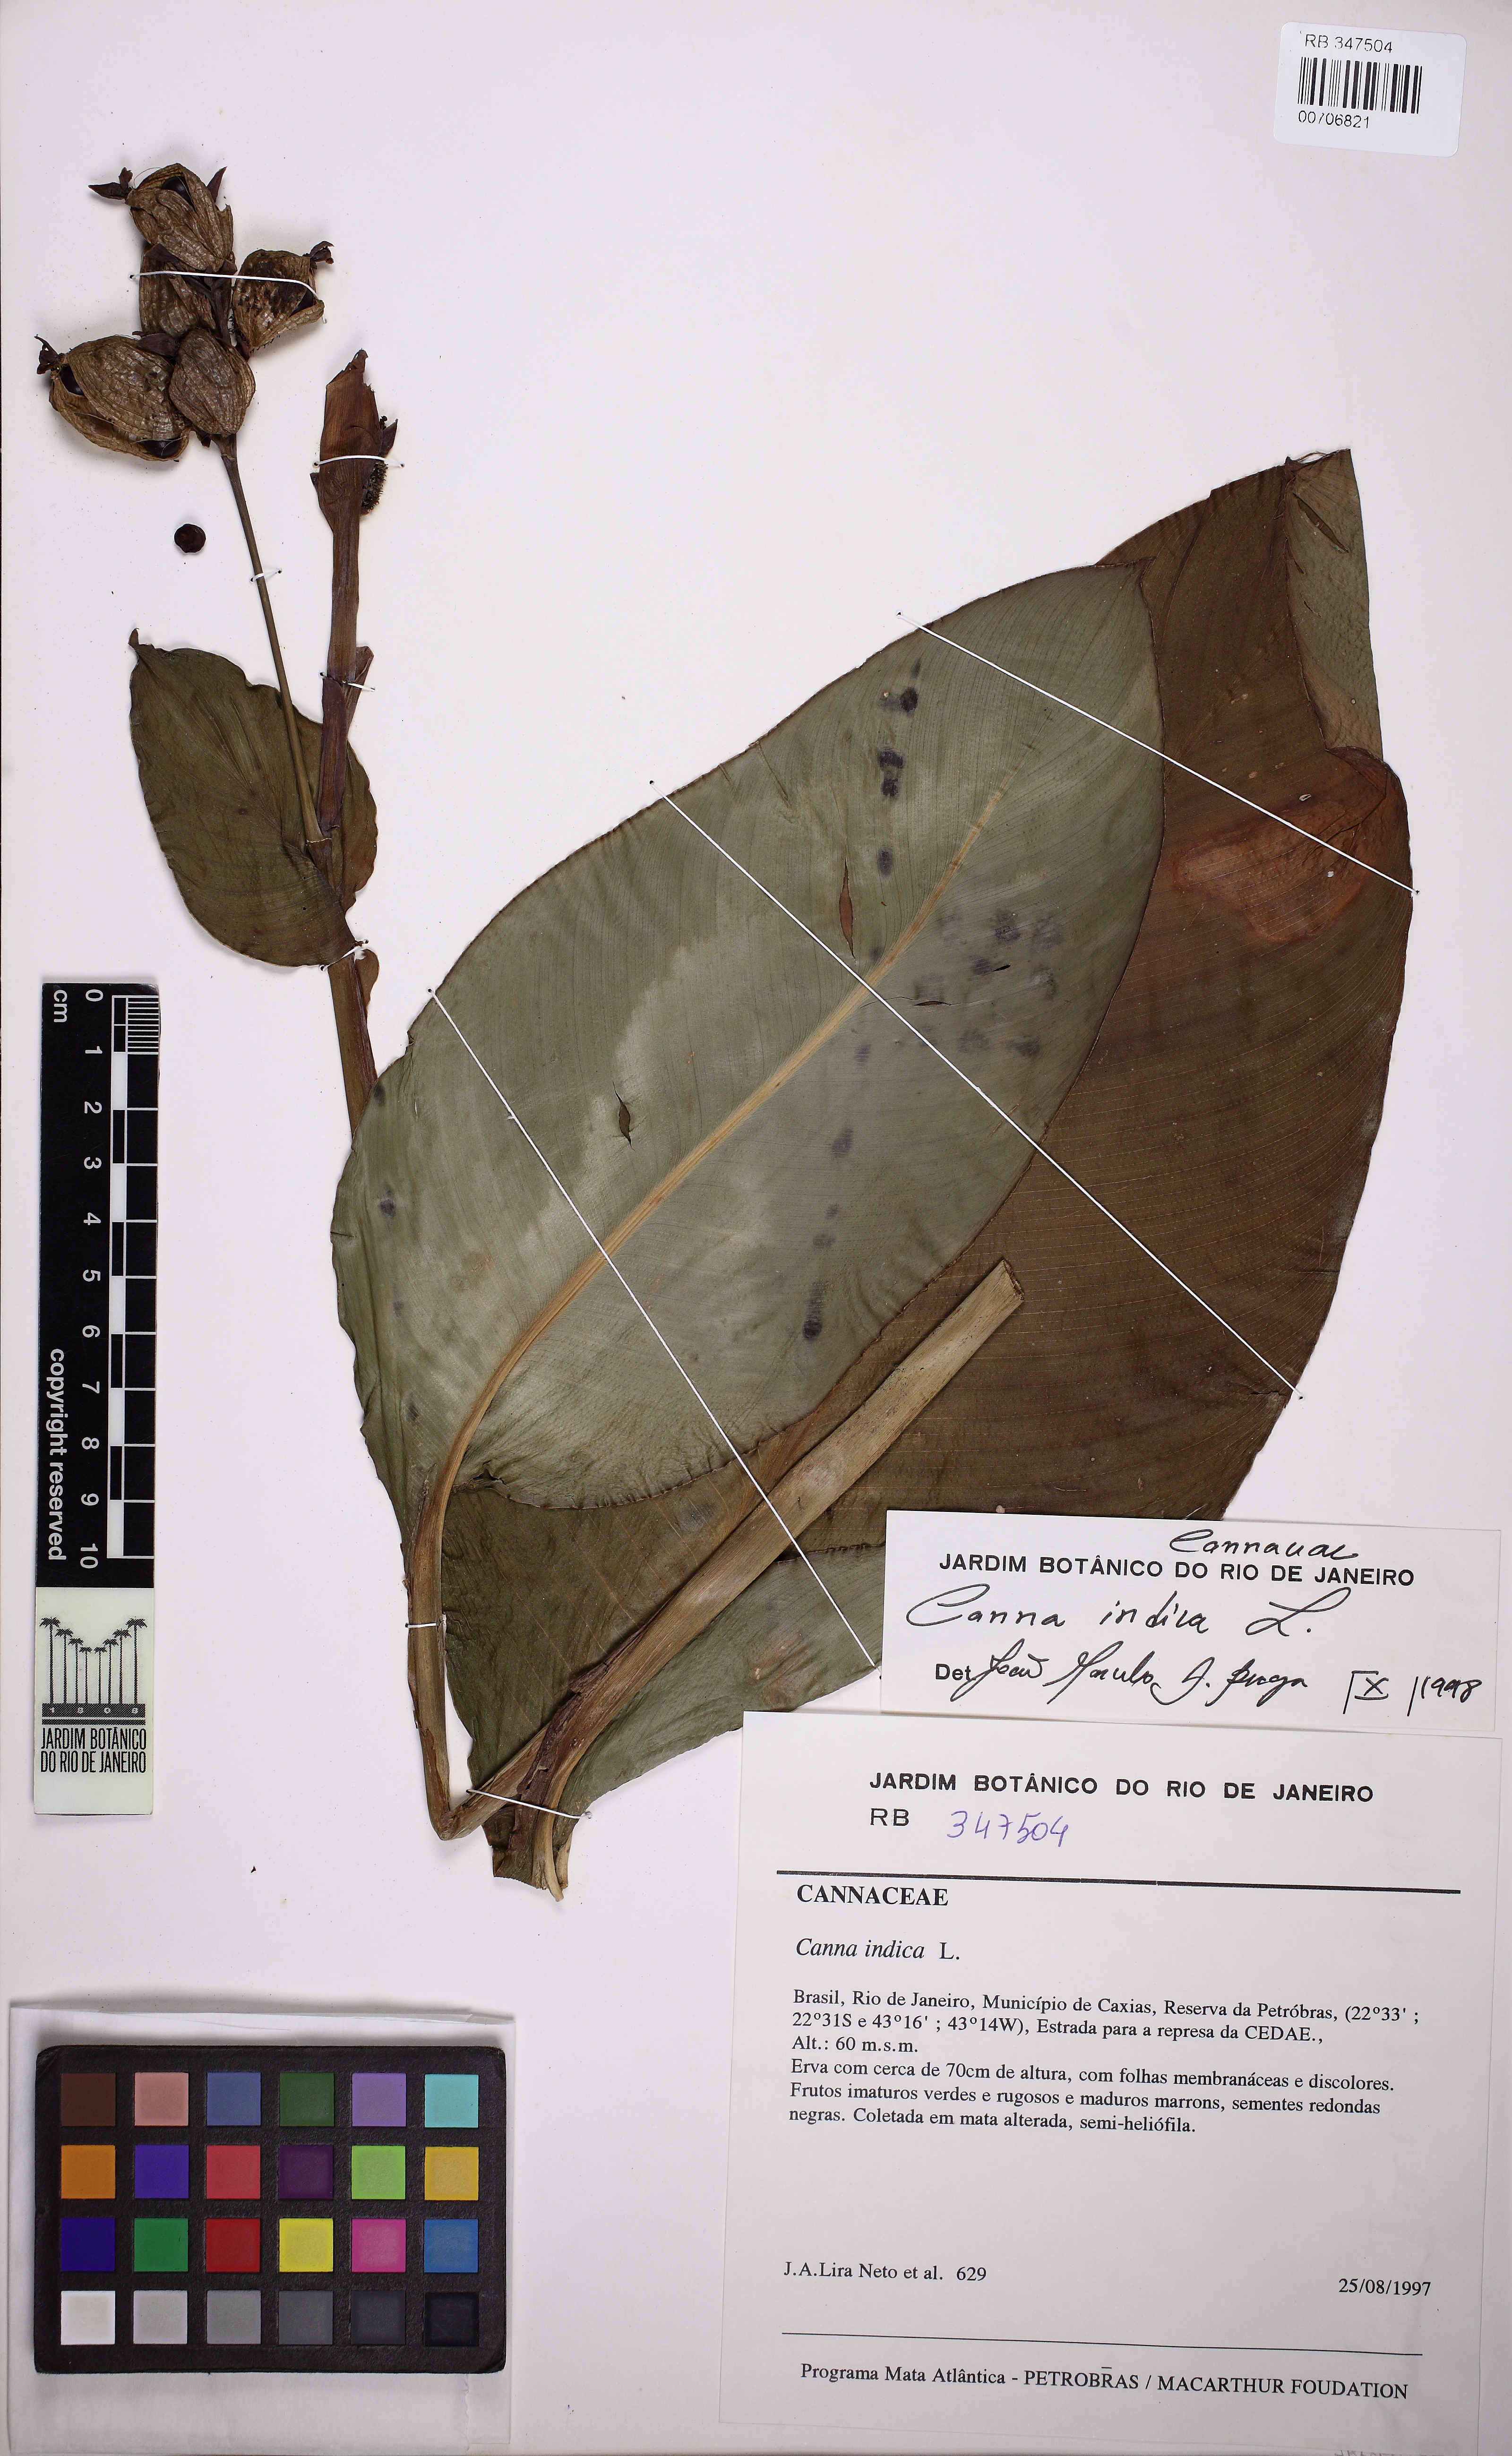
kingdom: Plantae
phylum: Tracheophyta
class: Liliopsida
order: Zingiberales
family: Cannaceae
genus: Canna
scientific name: Canna indica
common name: Indian shot
